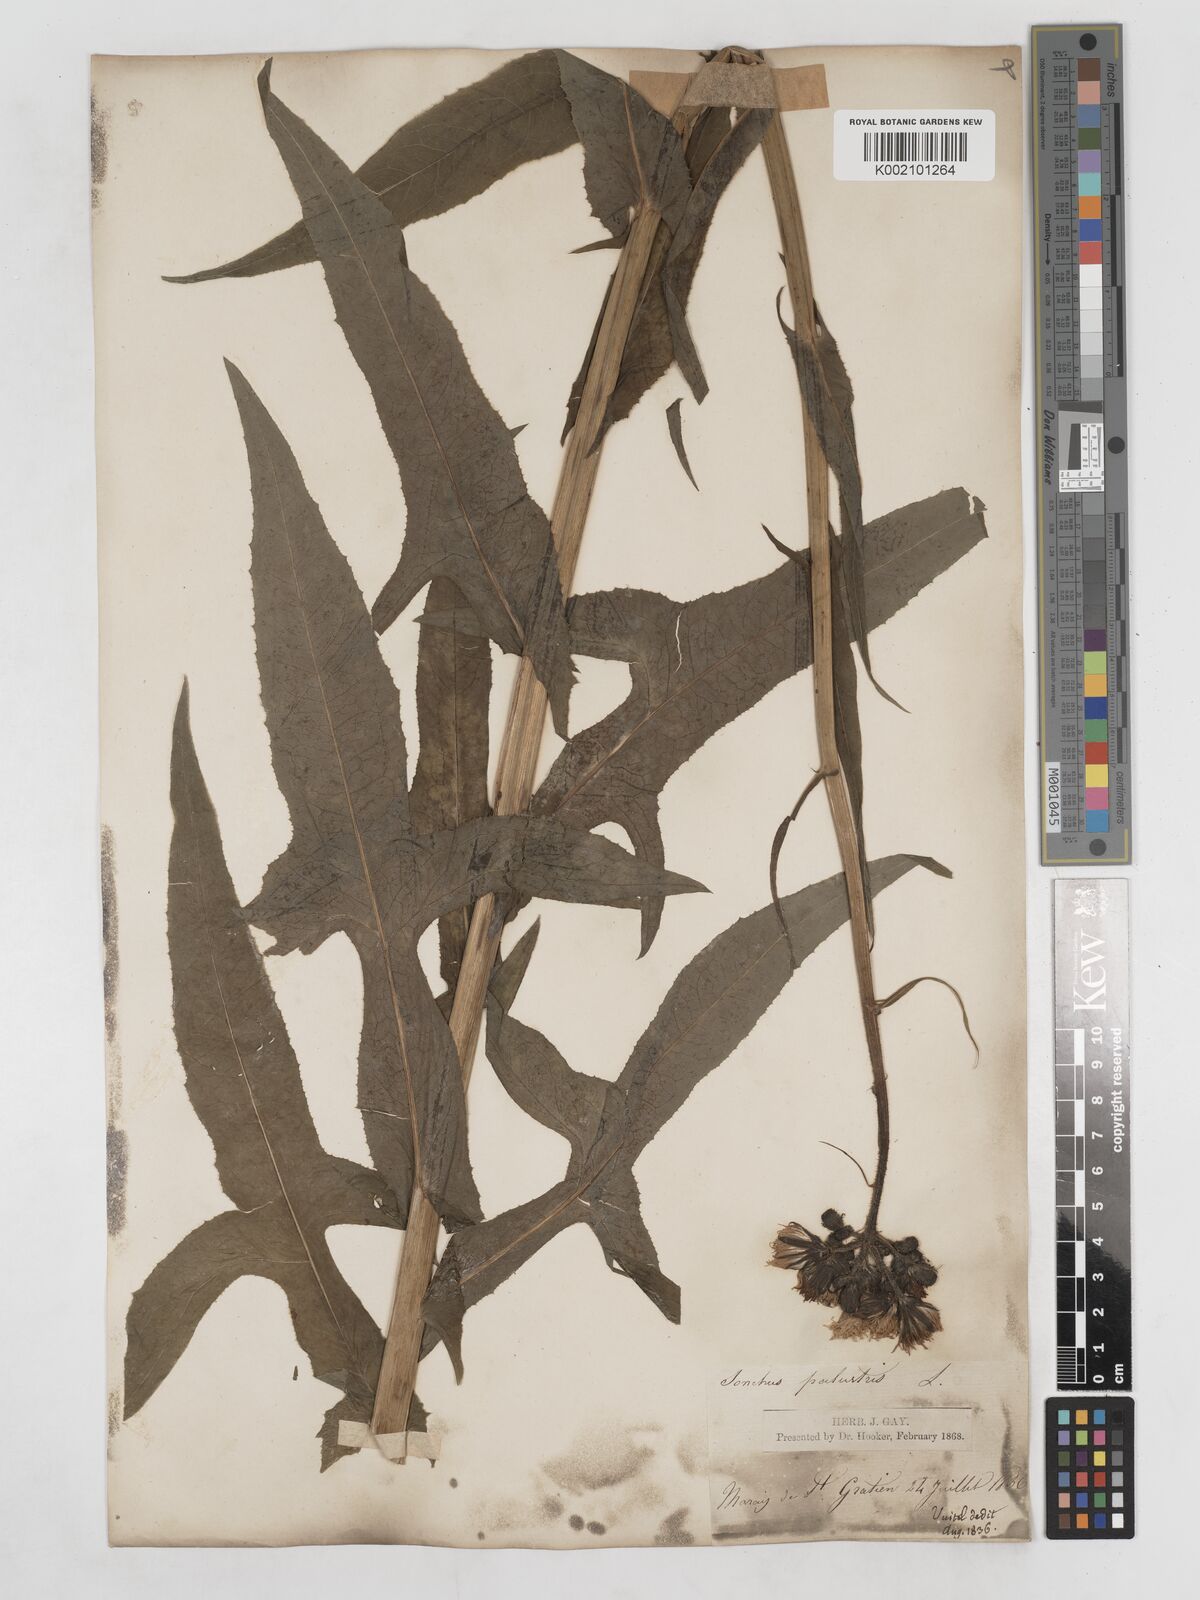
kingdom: Plantae
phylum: Tracheophyta
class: Magnoliopsida
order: Asterales
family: Asteraceae
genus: Sonchus
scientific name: Sonchus palustris
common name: Marsh sow-thistle
